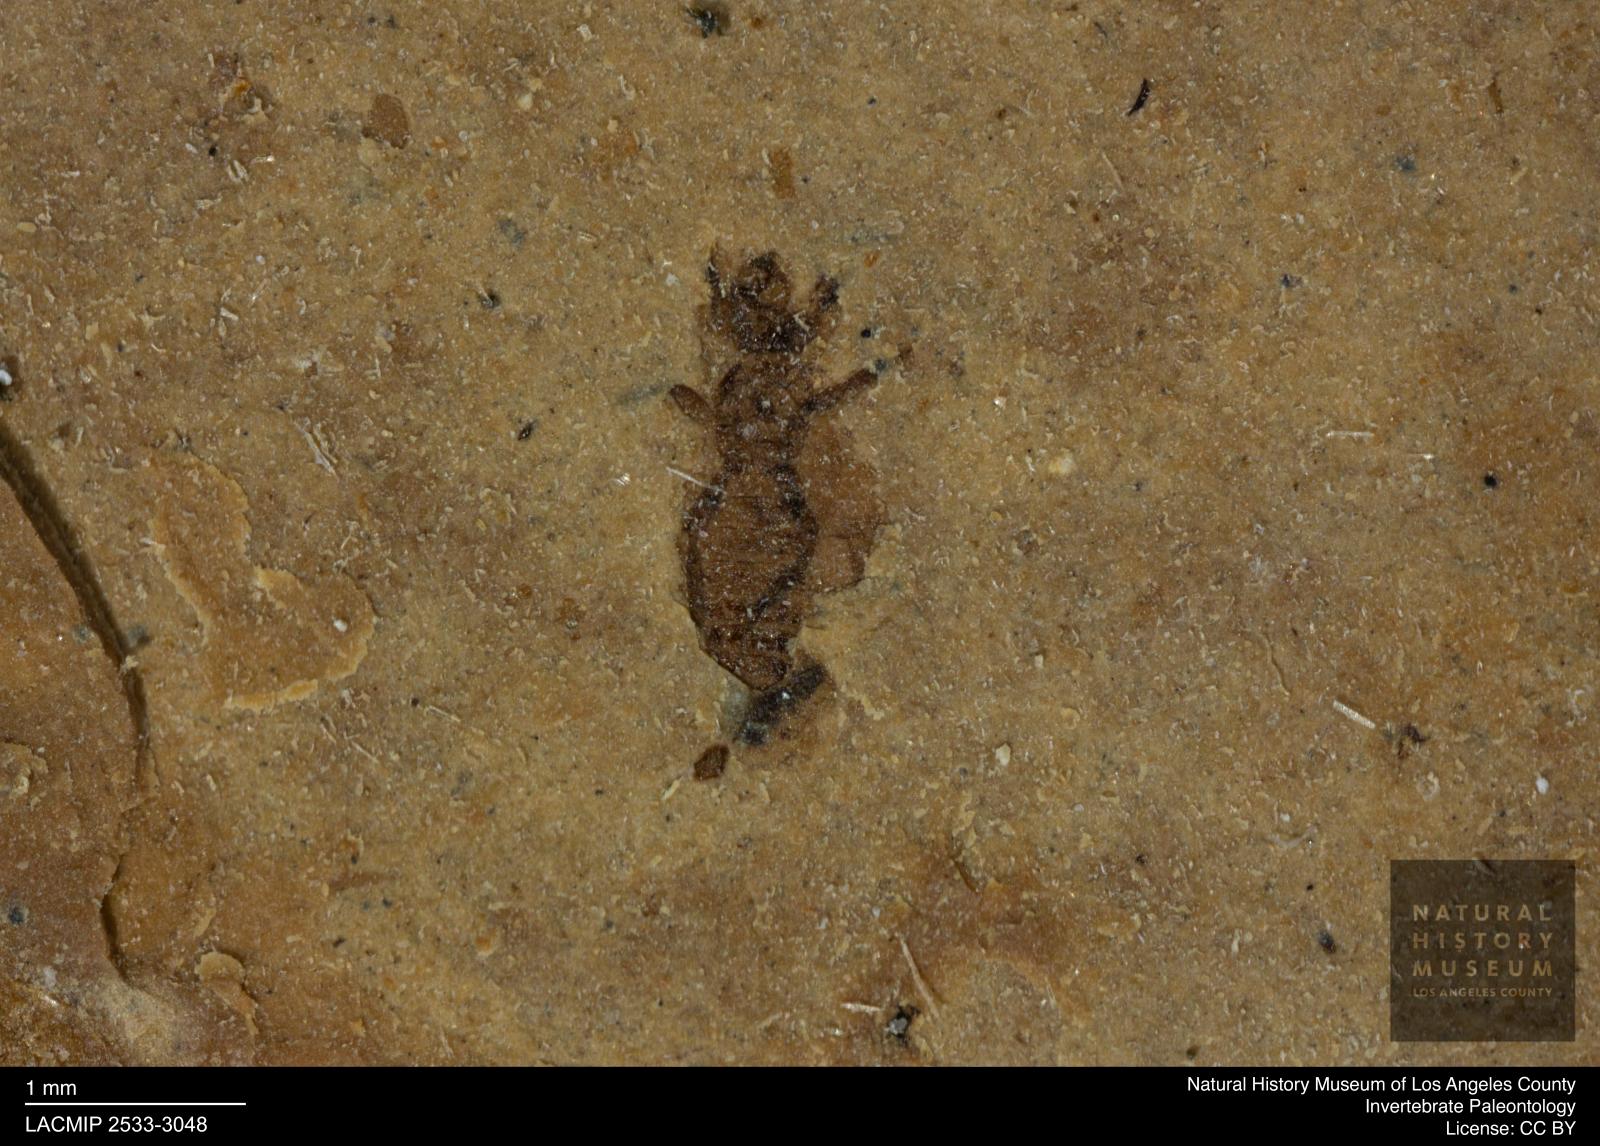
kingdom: Animalia
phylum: Arthropoda
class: Insecta
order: Thysanoptera
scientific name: Thysanoptera
